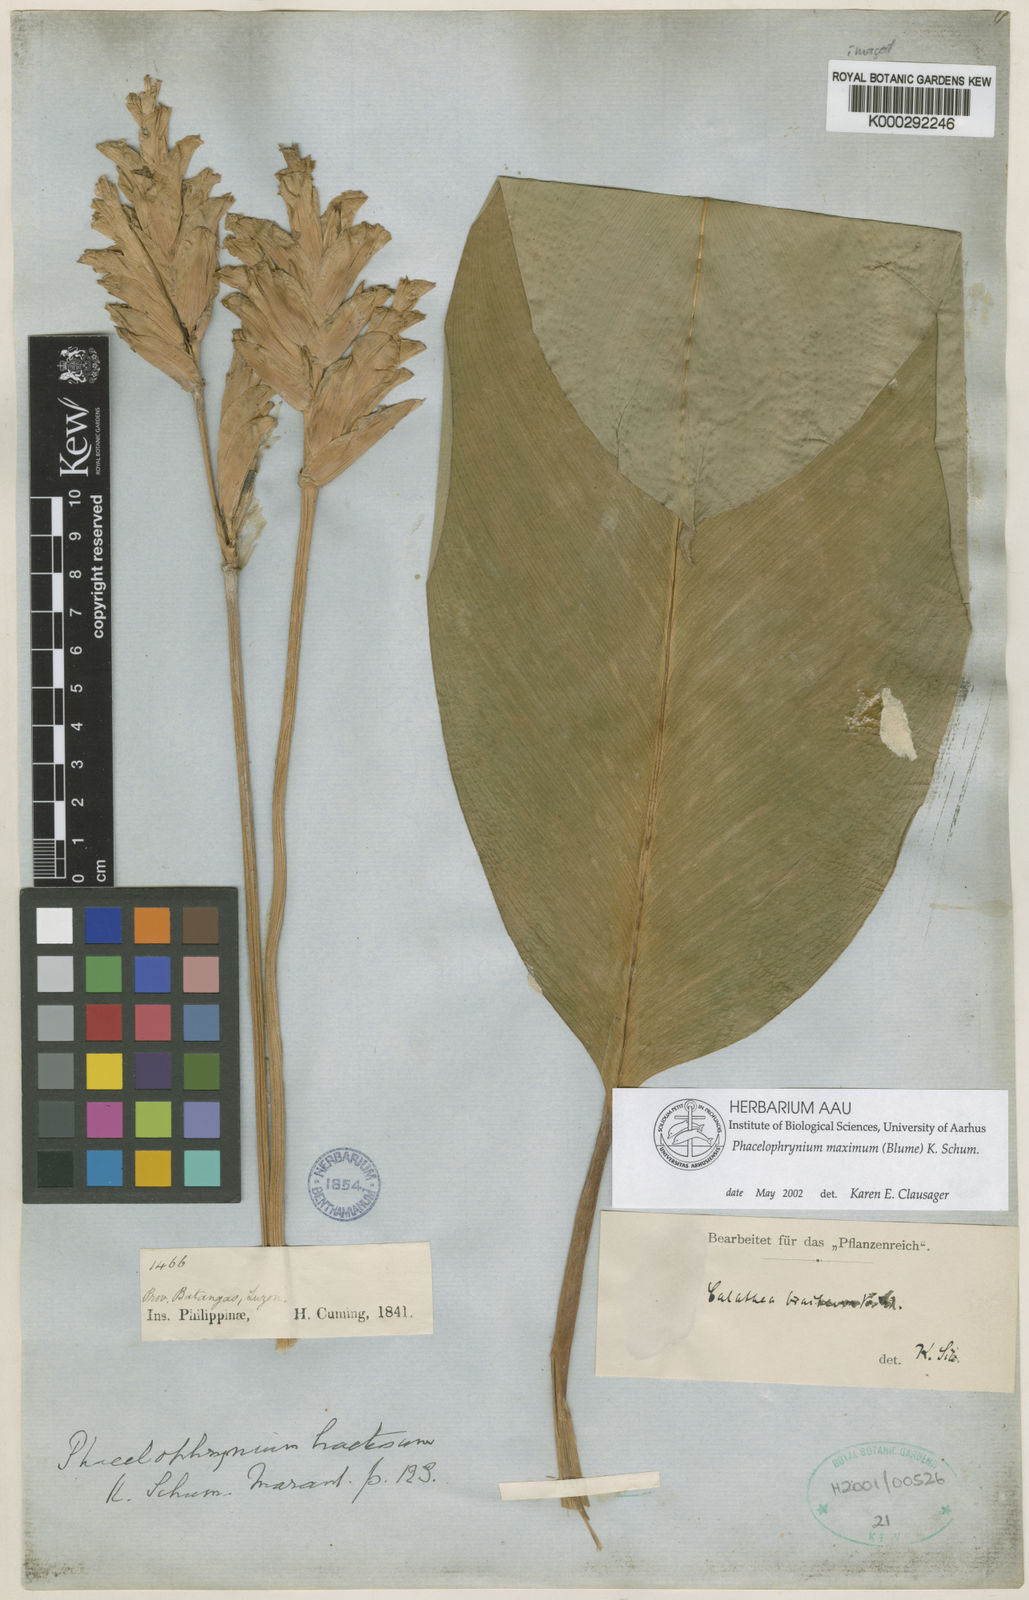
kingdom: Plantae
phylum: Tracheophyta
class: Liliopsida
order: Zingiberales
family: Marantaceae
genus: Phrynium
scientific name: Phrynium maximum
